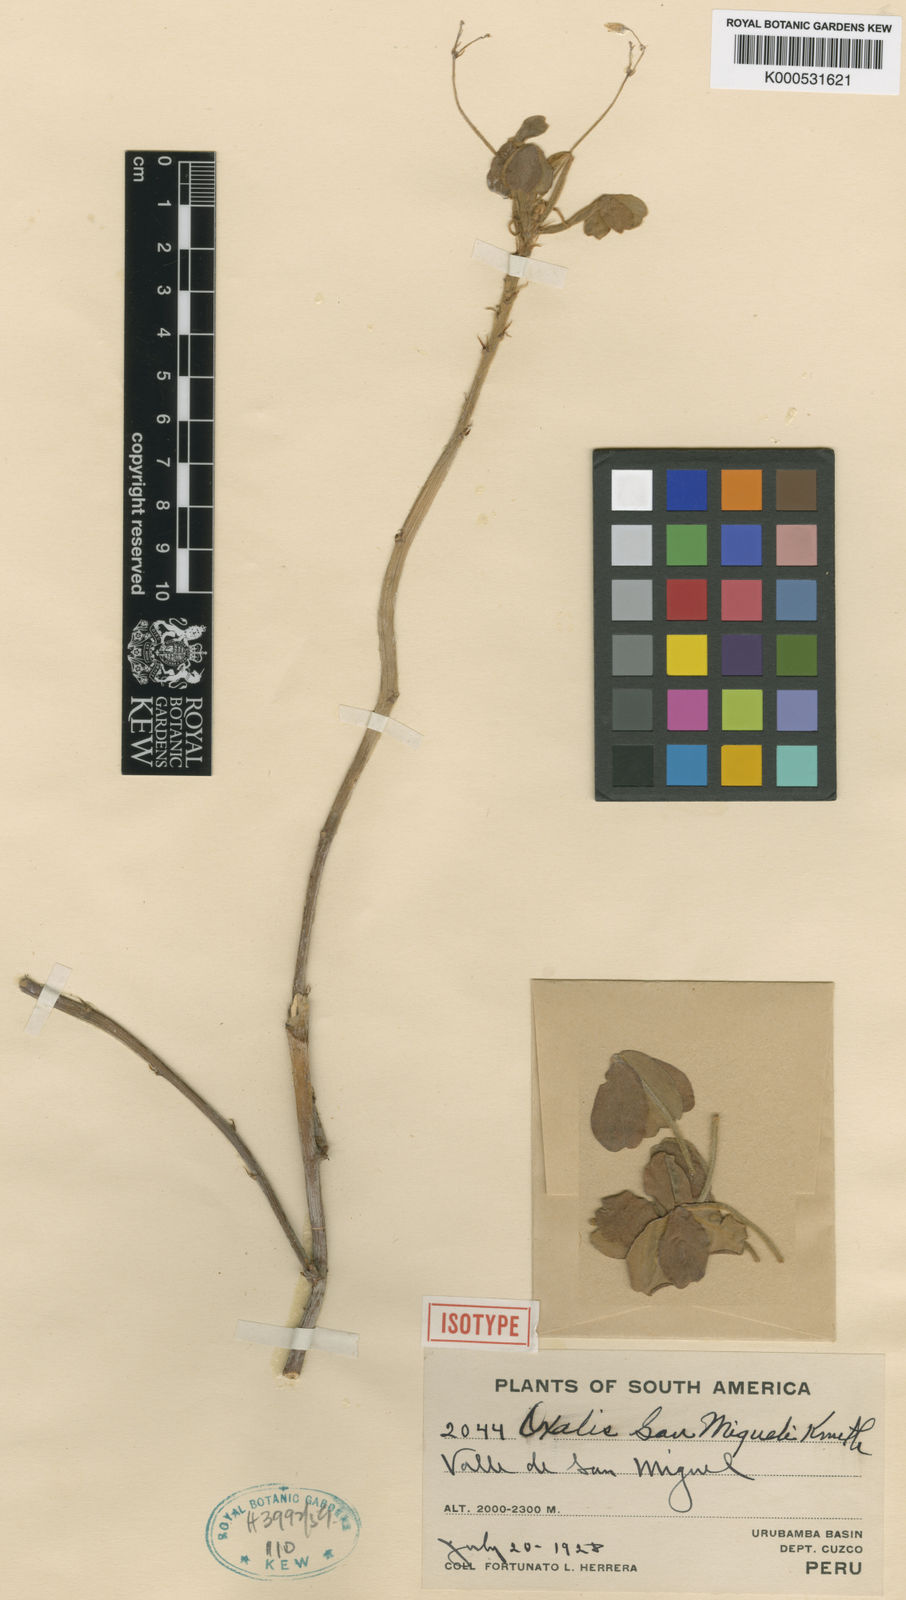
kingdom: Plantae
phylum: Tracheophyta
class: Magnoliopsida
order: Oxalidales
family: Oxalidaceae
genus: Oxalis
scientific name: Oxalis san-miguelii
